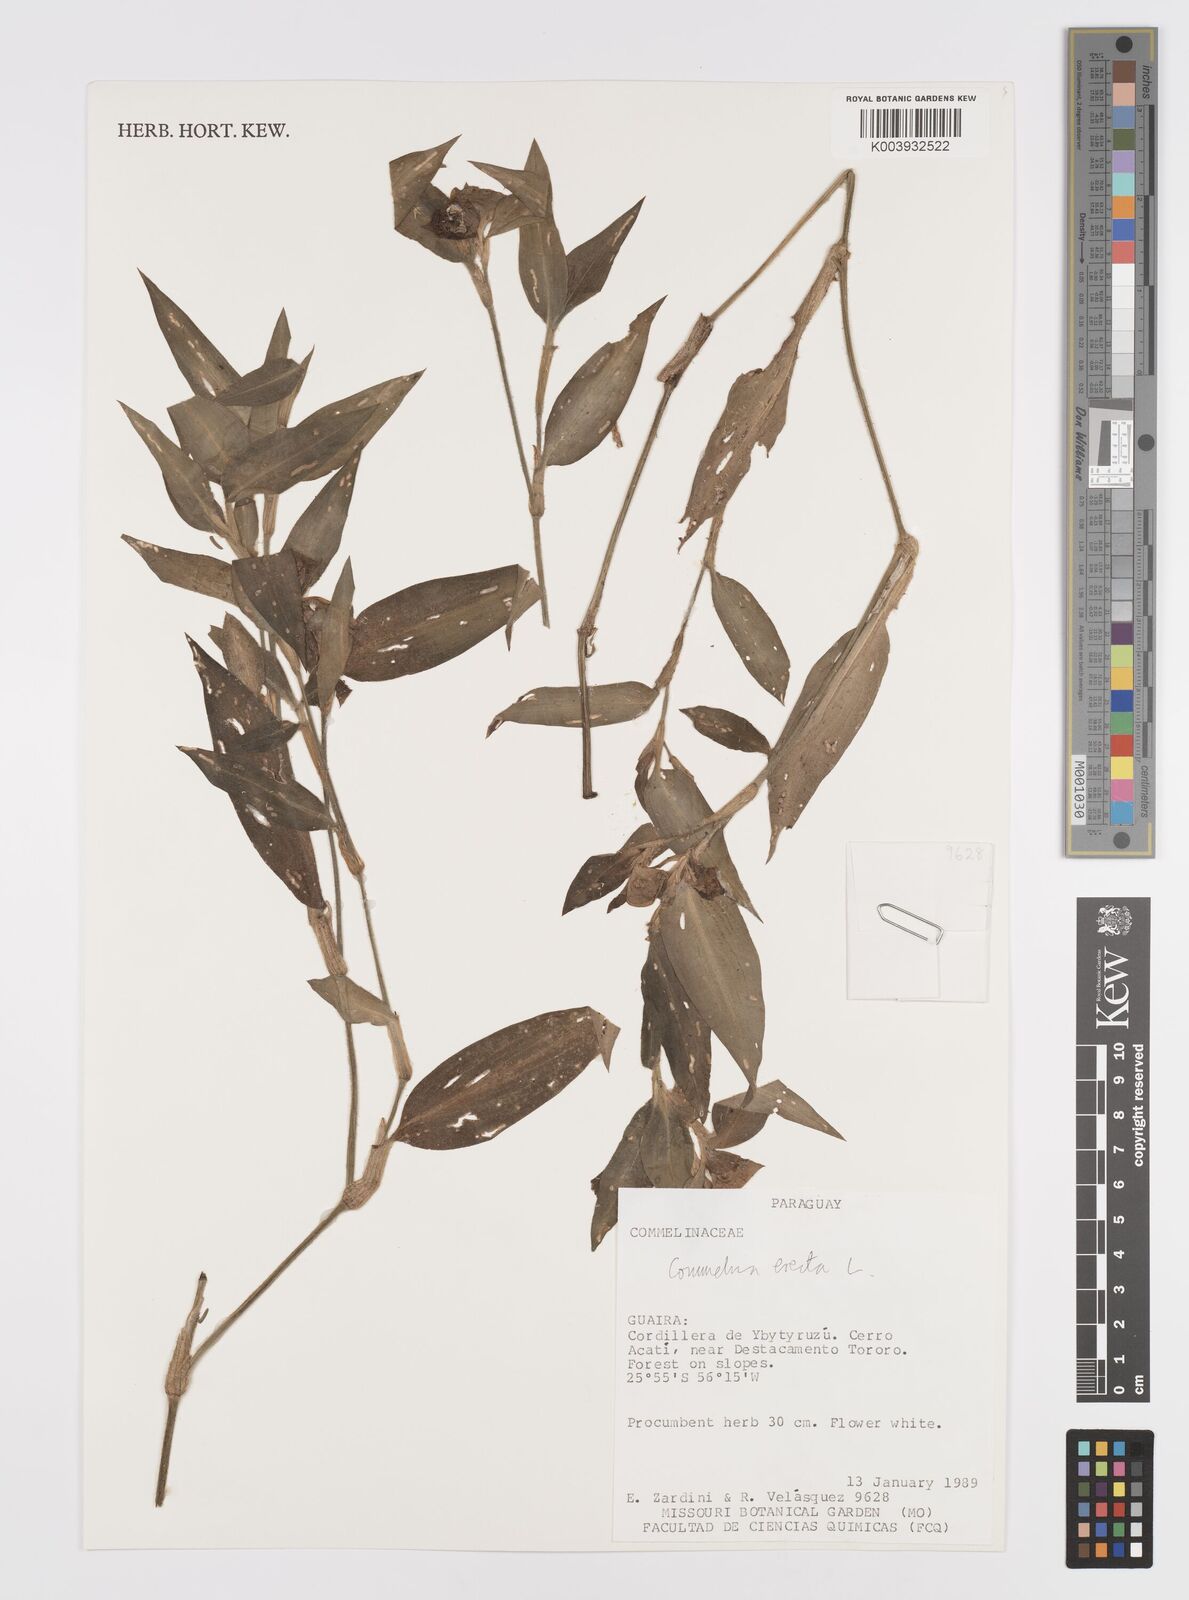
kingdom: Plantae
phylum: Tracheophyta
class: Liliopsida
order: Commelinales
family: Commelinaceae
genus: Commelina
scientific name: Commelina erecta
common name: Blousel blommetjie
